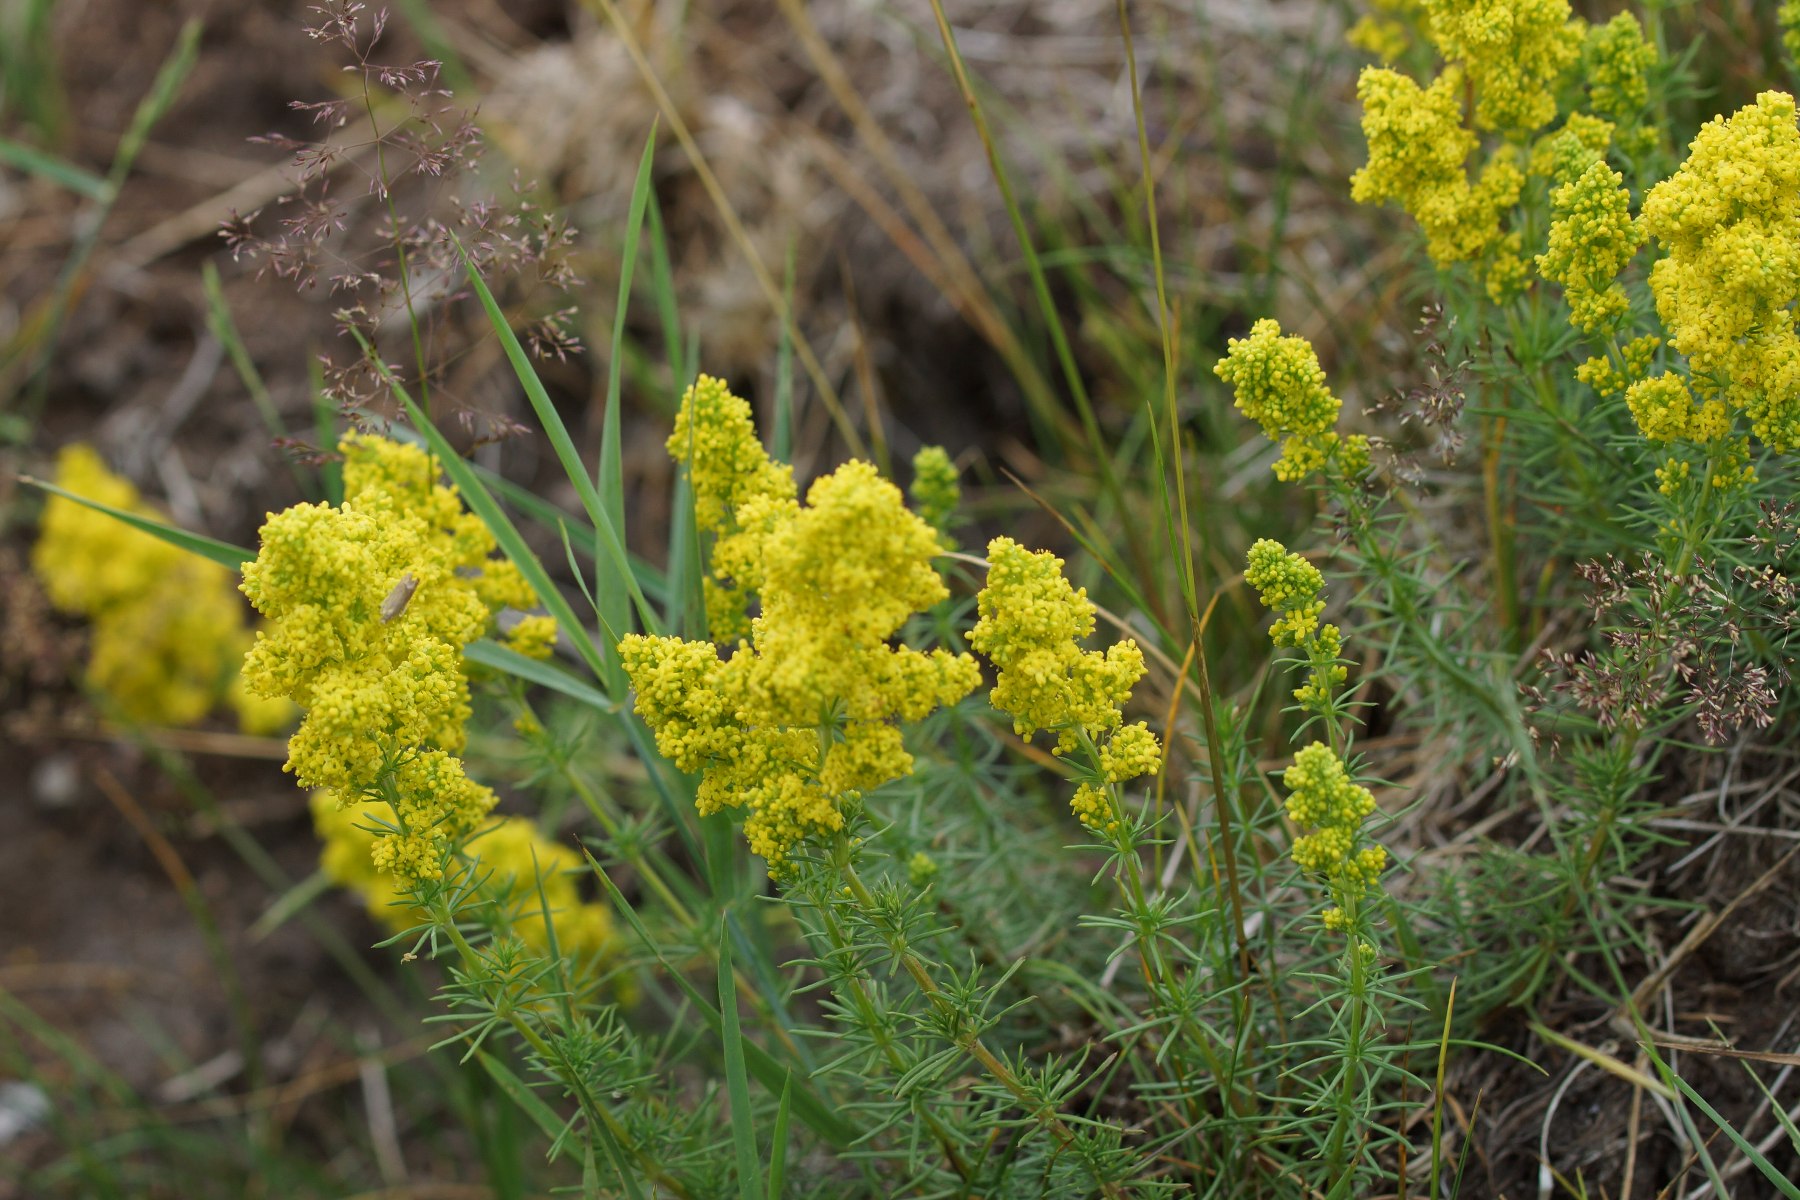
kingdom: Plantae
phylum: Tracheophyta
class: Magnoliopsida
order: Gentianales
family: Rubiaceae
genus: Galium
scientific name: Galium verum
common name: Gul snerre
